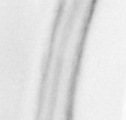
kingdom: Animalia
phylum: Chordata
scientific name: Chordata
